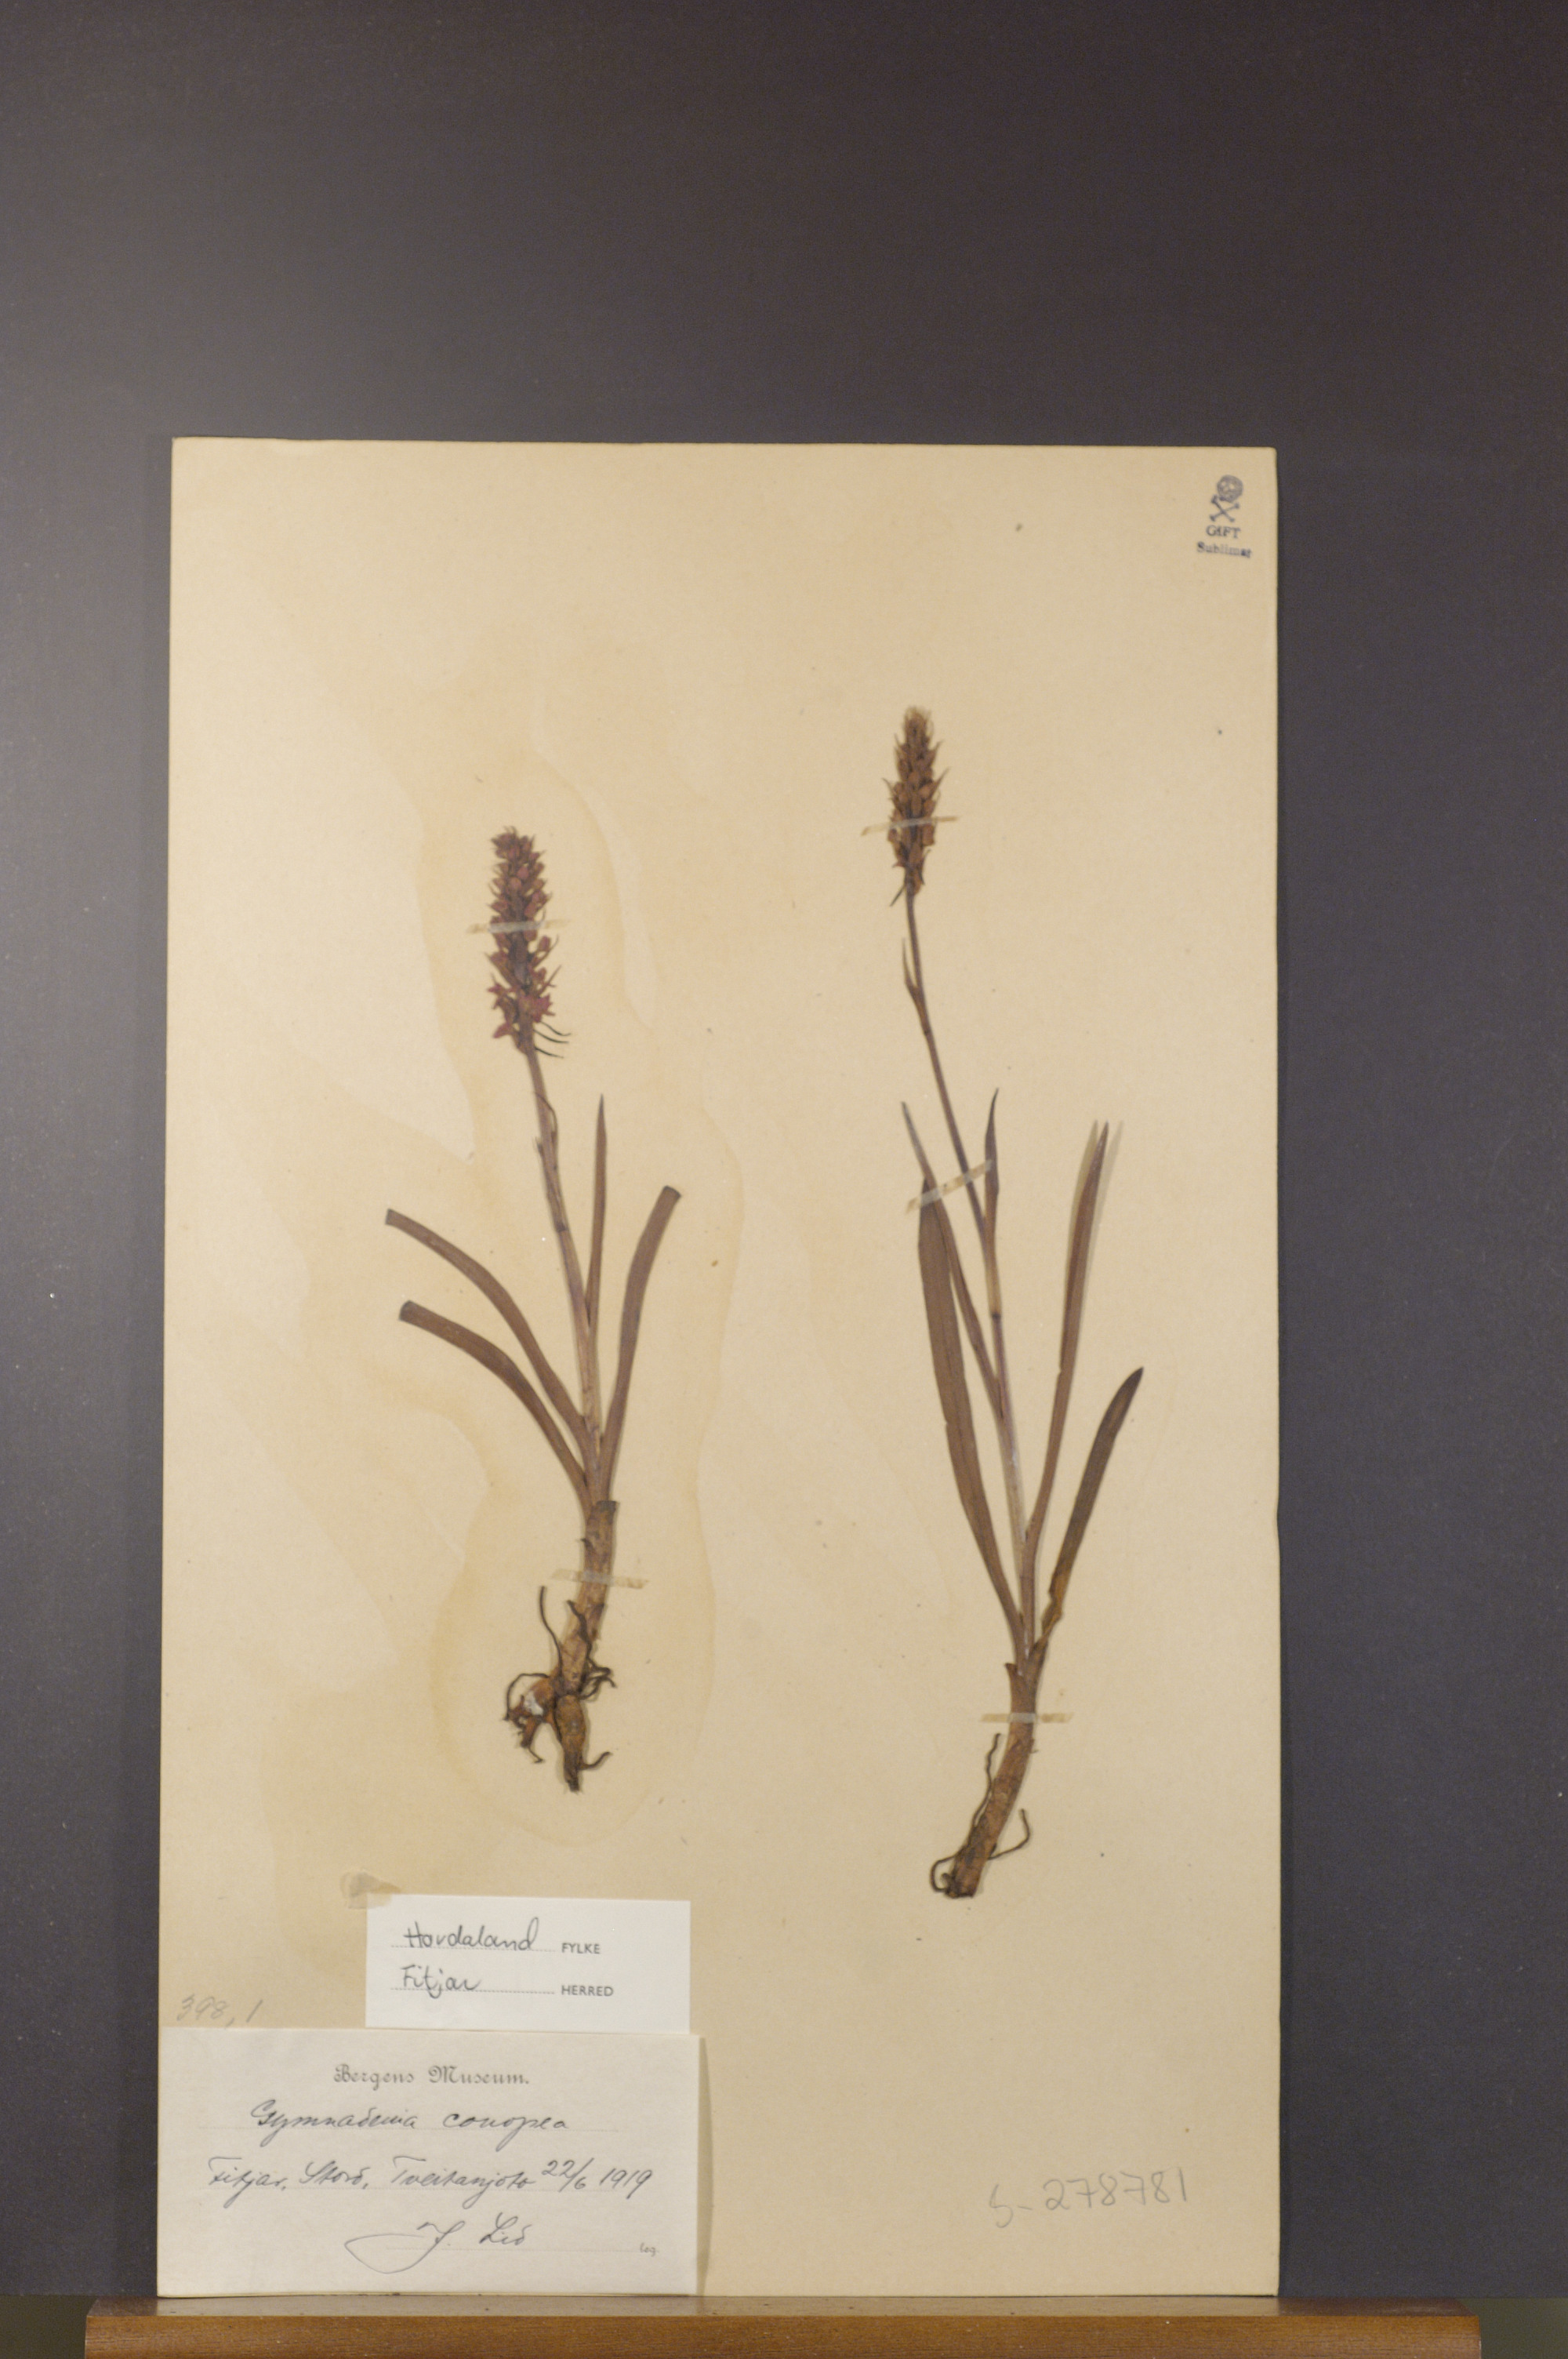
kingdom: Plantae
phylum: Tracheophyta
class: Liliopsida
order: Asparagales
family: Orchidaceae
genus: Gymnadenia
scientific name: Gymnadenia conopsea
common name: Fragrant orchid
